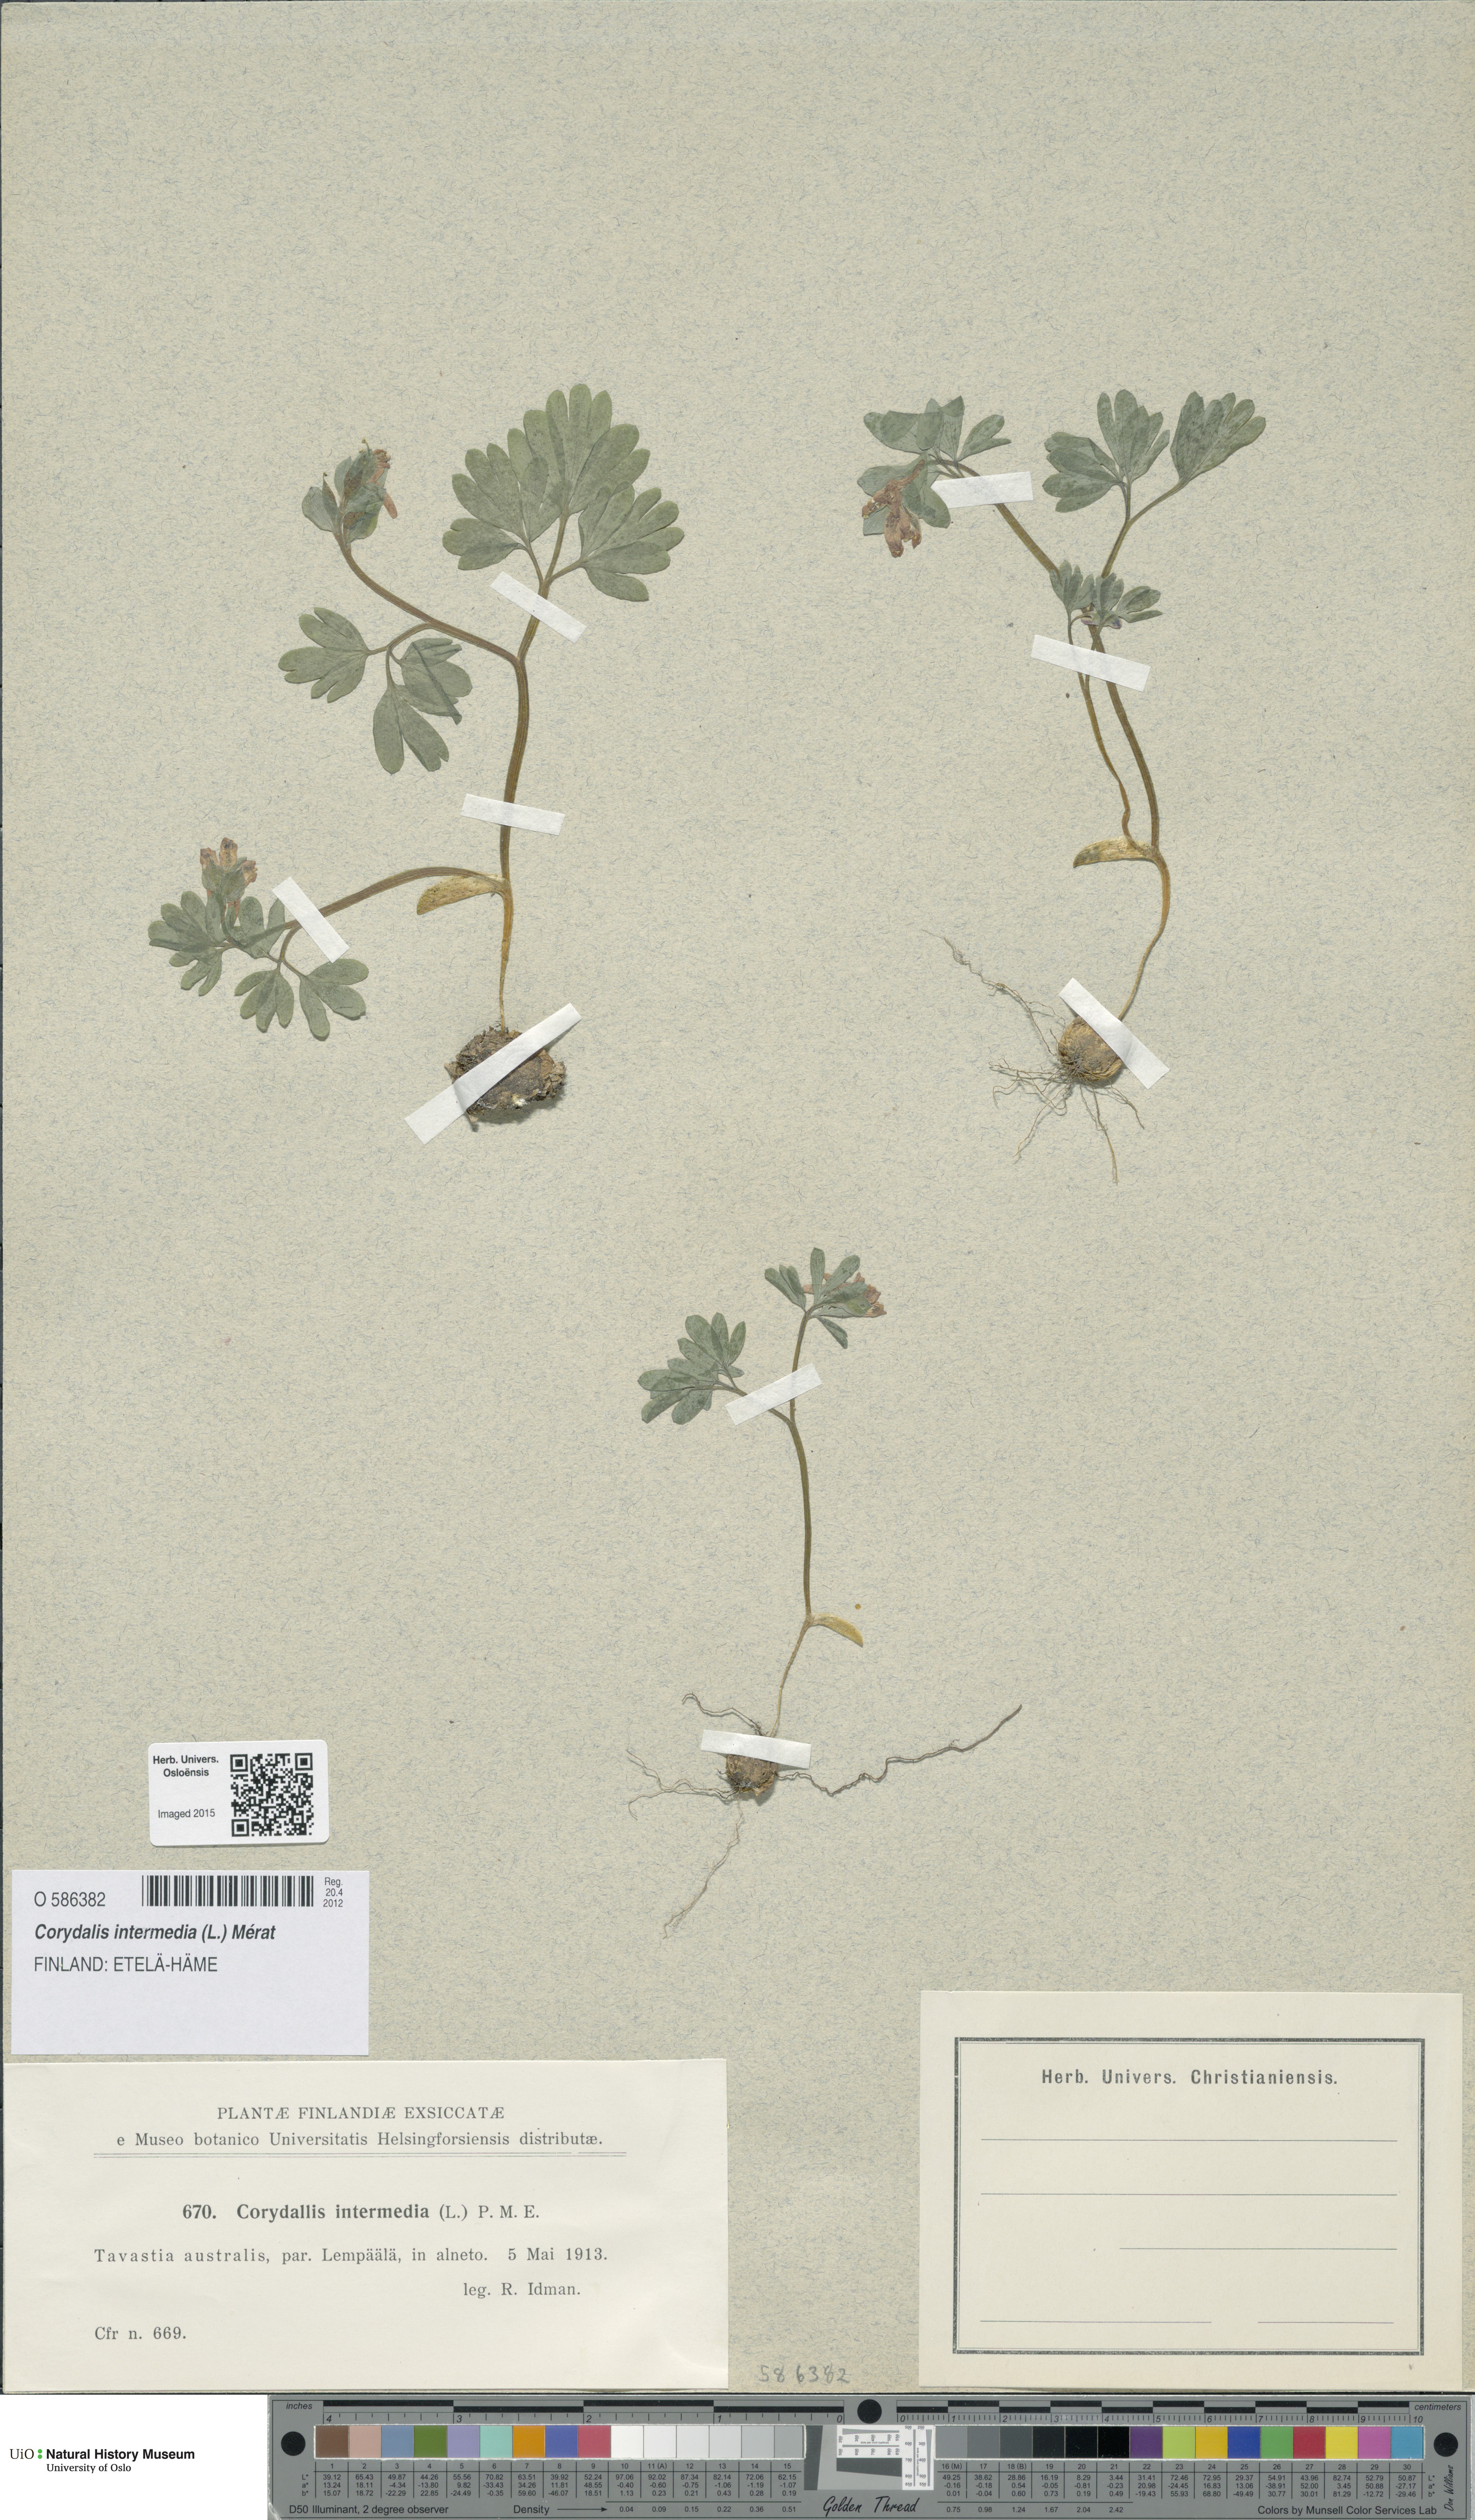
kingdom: Plantae
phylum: Tracheophyta
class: Magnoliopsida
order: Ranunculales
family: Papaveraceae
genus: Corydalis
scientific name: Corydalis intermedia
